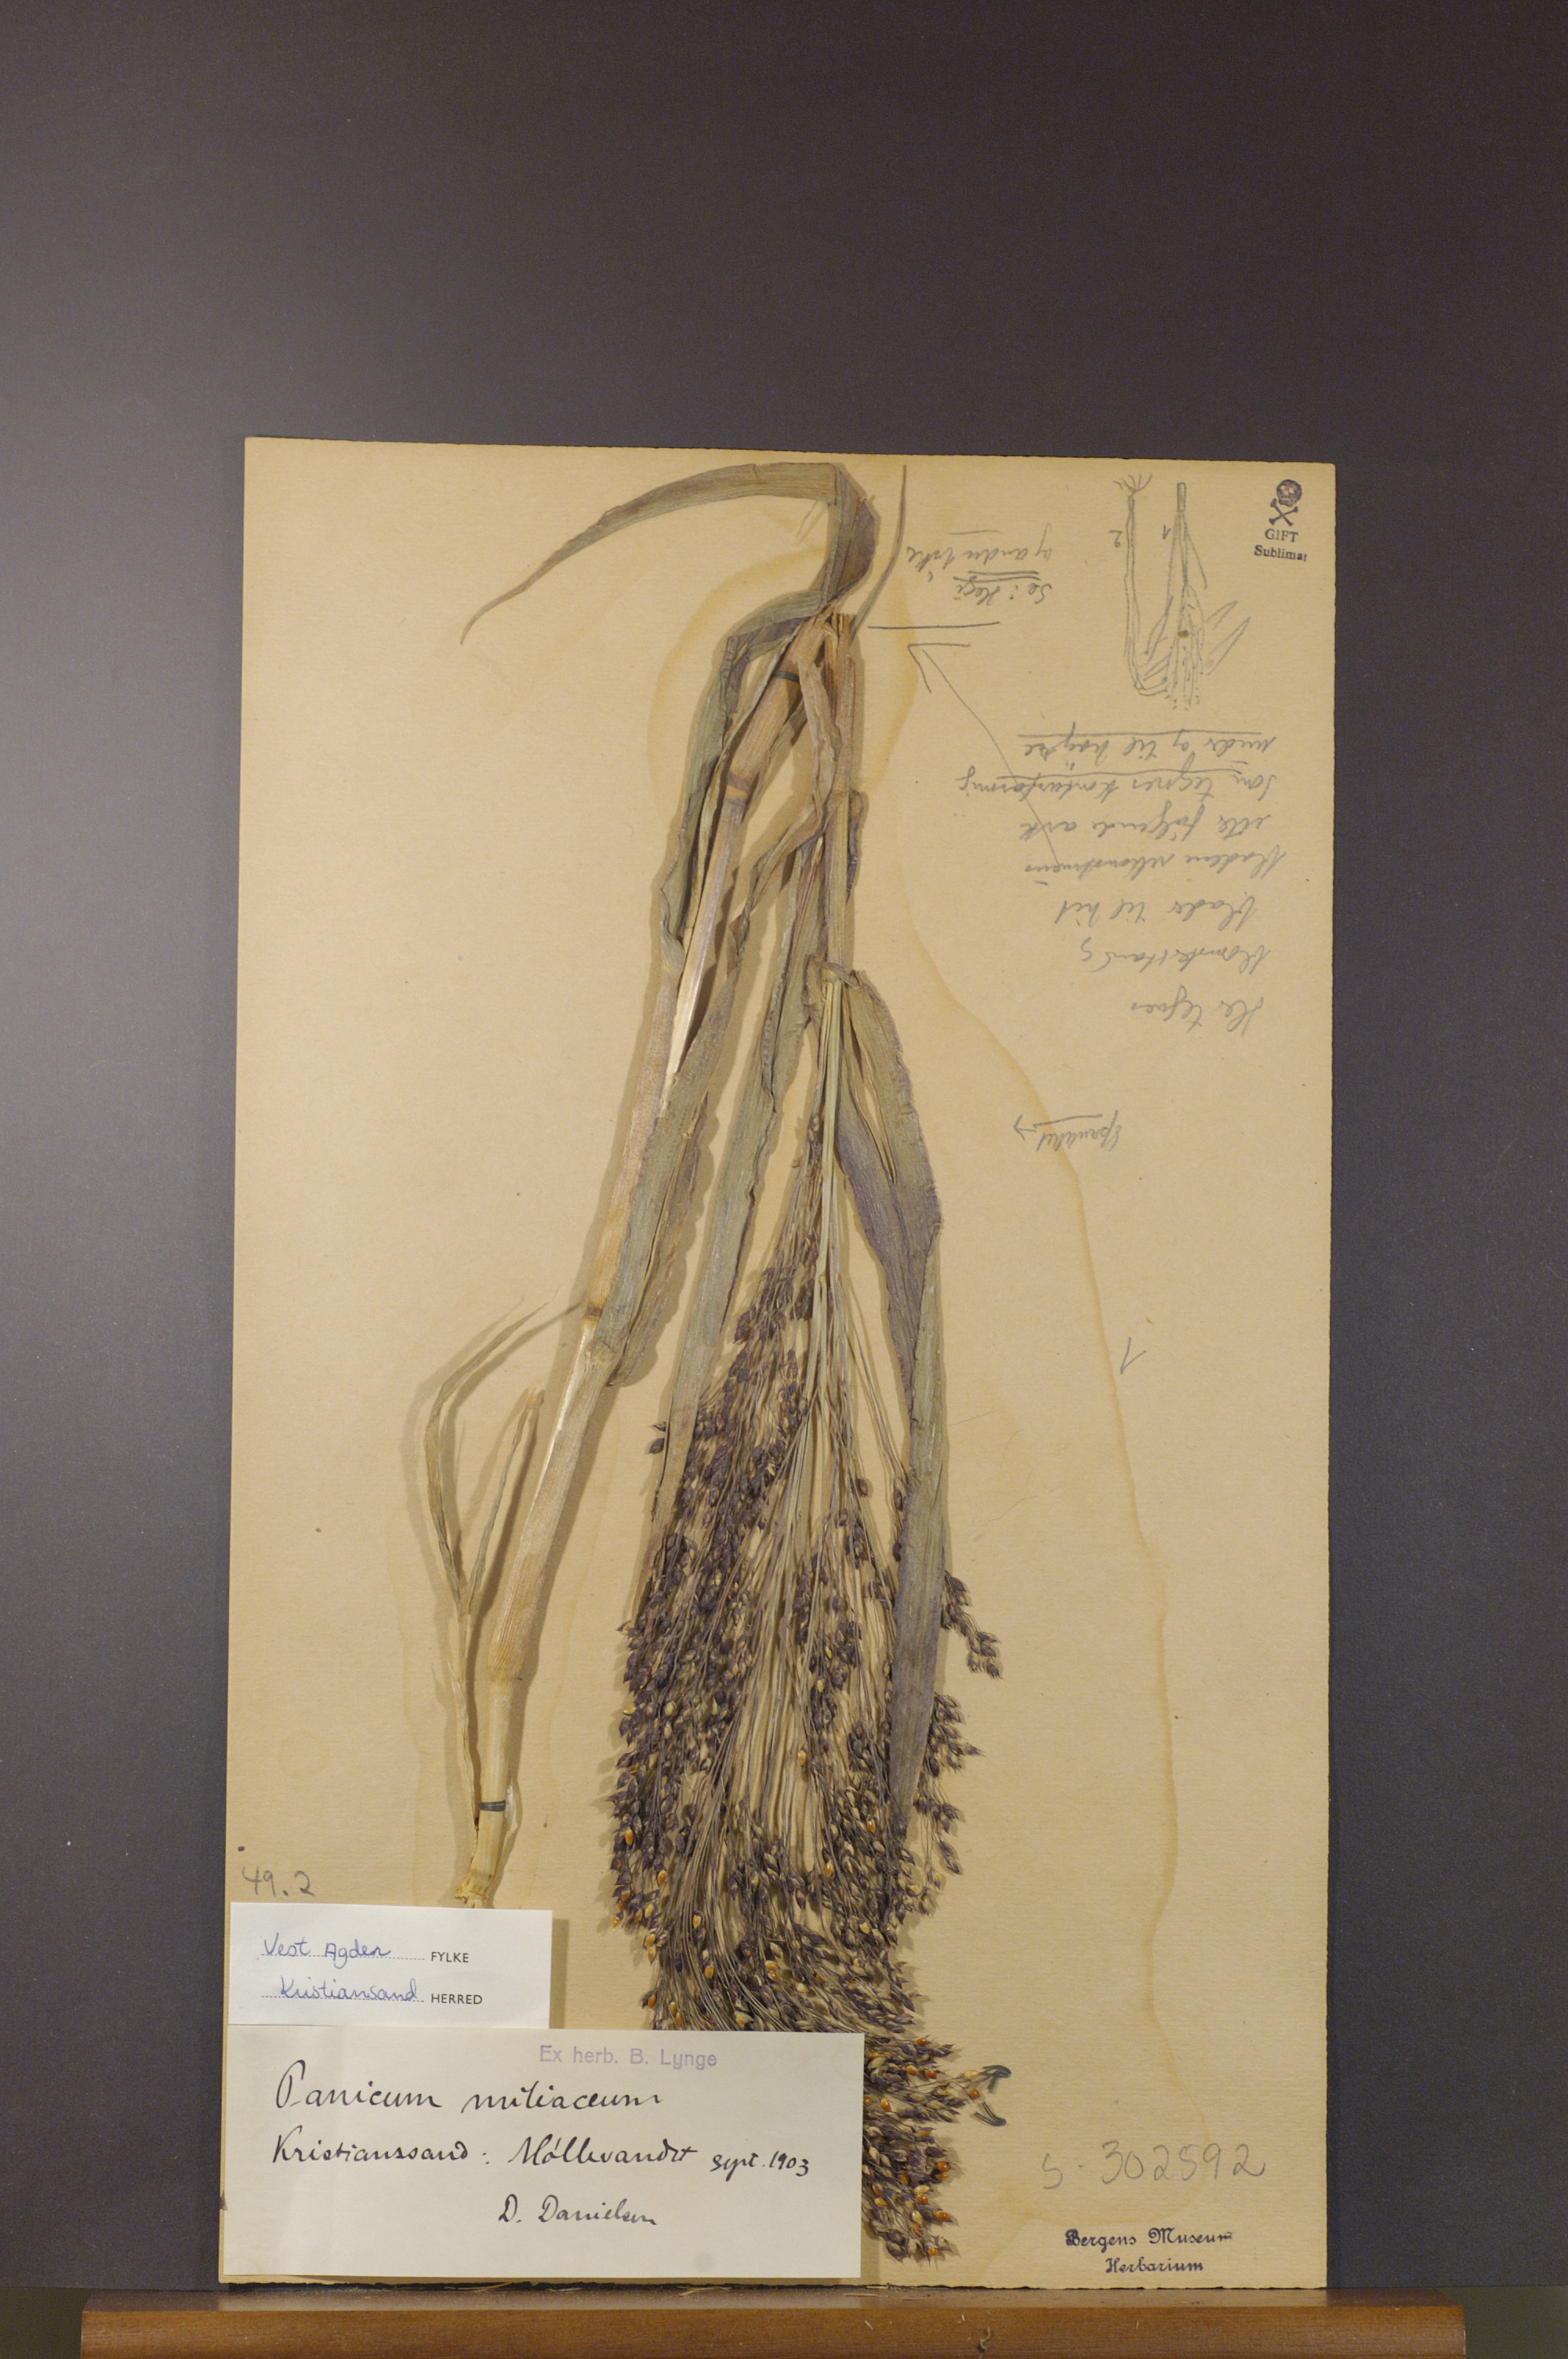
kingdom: Plantae
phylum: Tracheophyta
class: Liliopsida
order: Poales
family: Poaceae
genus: Panicum
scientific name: Panicum miliaceum
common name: Common millet
